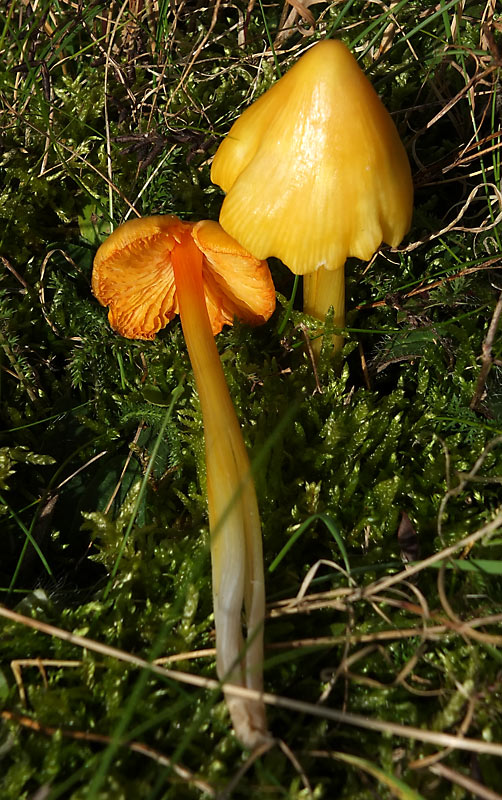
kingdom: Fungi
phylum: Basidiomycota
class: Agaricomycetes
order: Agaricales
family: Hygrophoraceae
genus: Hygrocybe
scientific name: Hygrocybe acutoconica
